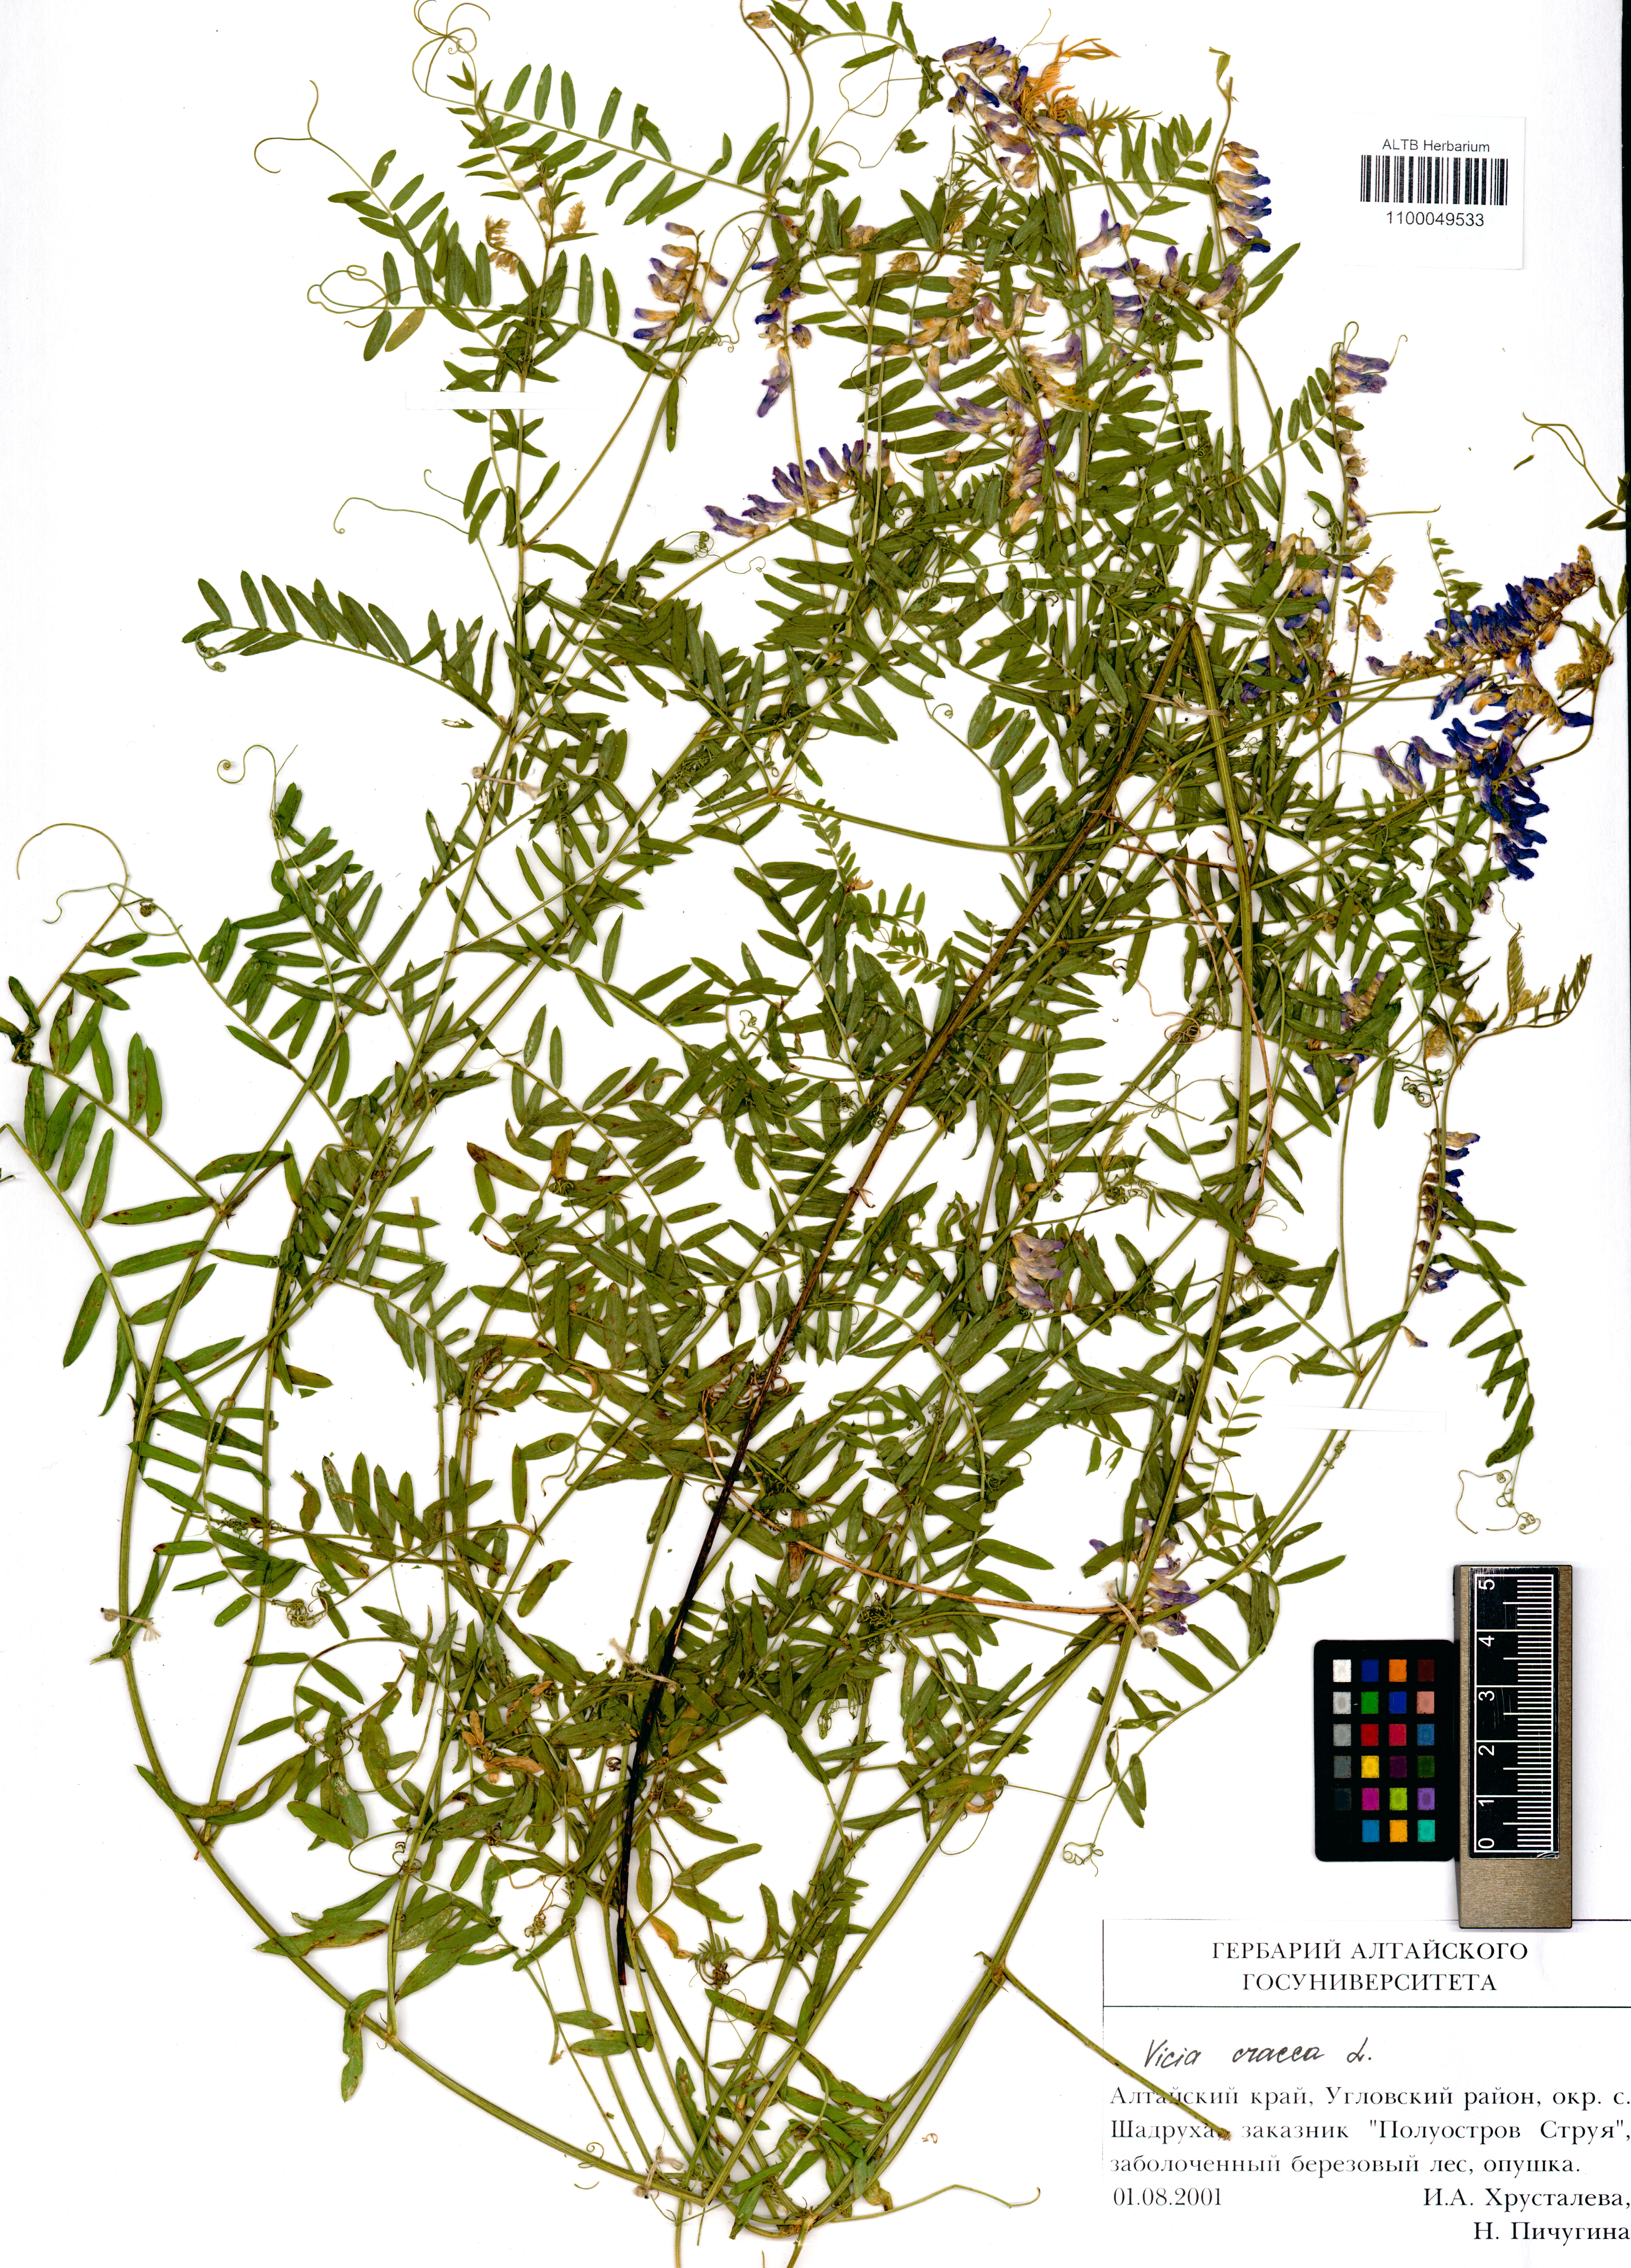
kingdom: Plantae
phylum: Tracheophyta
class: Magnoliopsida
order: Fabales
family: Fabaceae
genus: Vicia
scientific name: Vicia cracca
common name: Bird vetch
